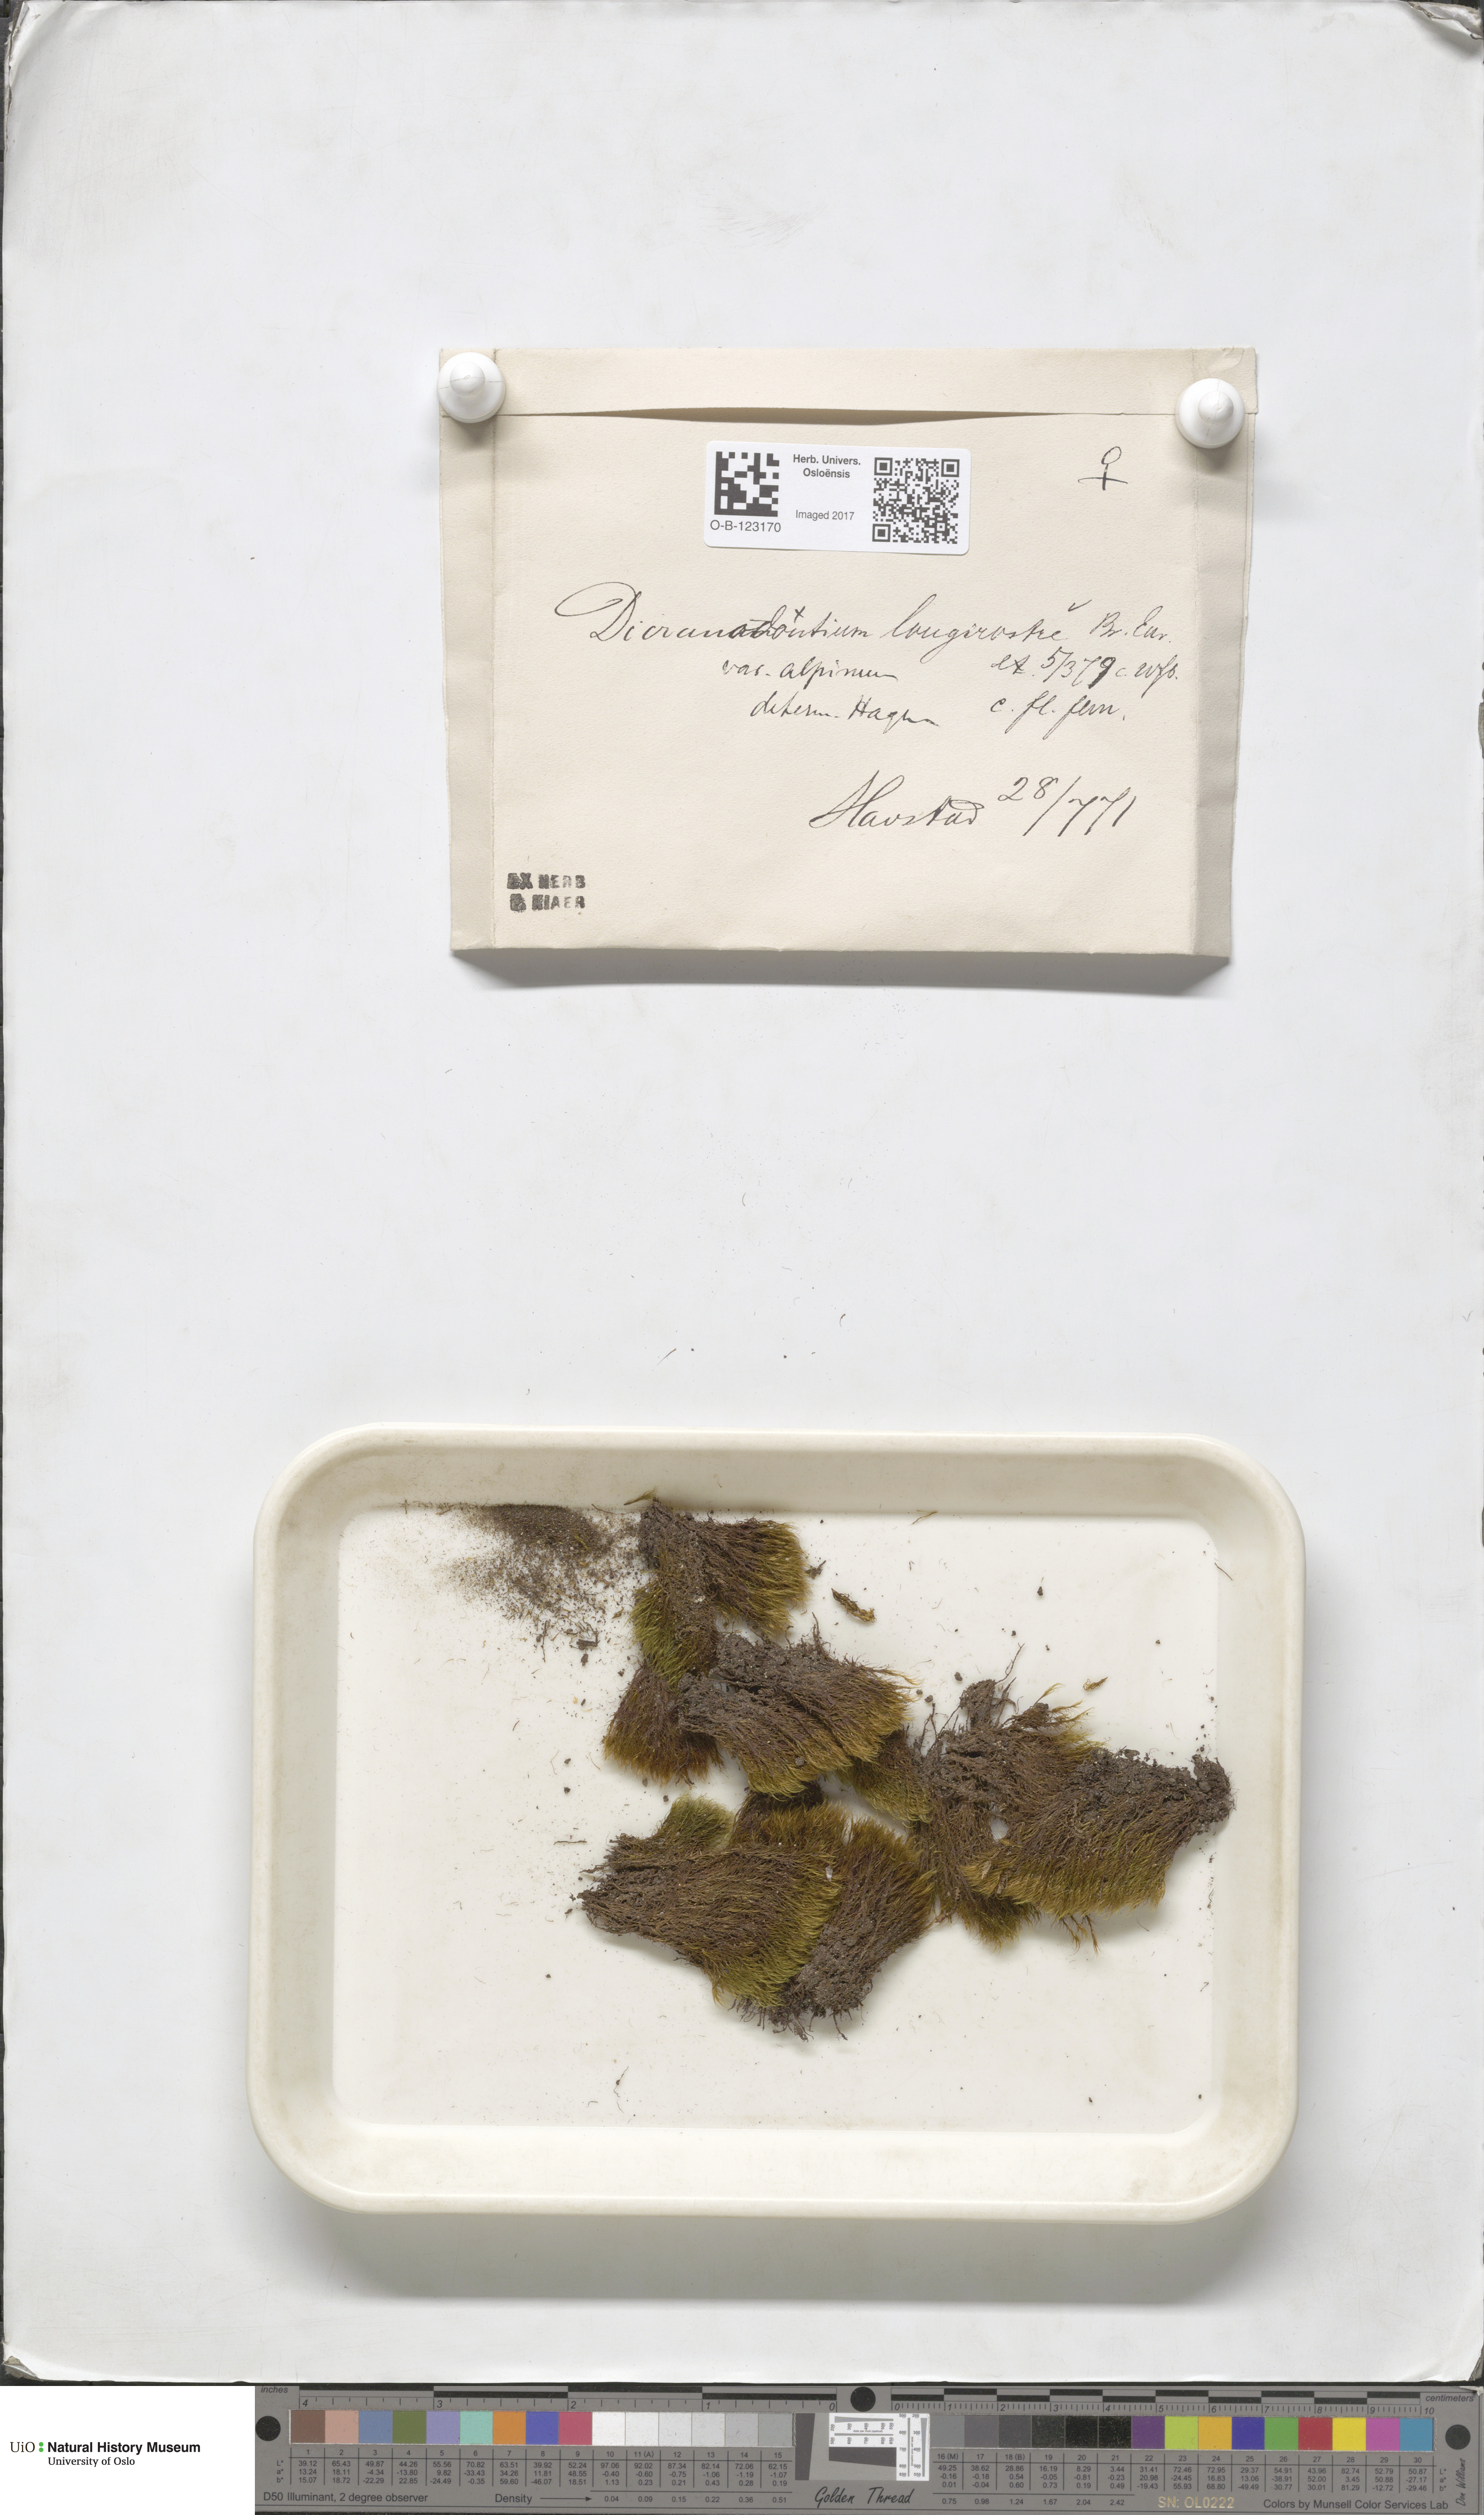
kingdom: Plantae
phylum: Bryophyta
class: Bryopsida
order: Dicranales
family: Leucobryaceae
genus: Dicranodontium
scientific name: Dicranodontium denudatum
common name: Beaked bow moss
